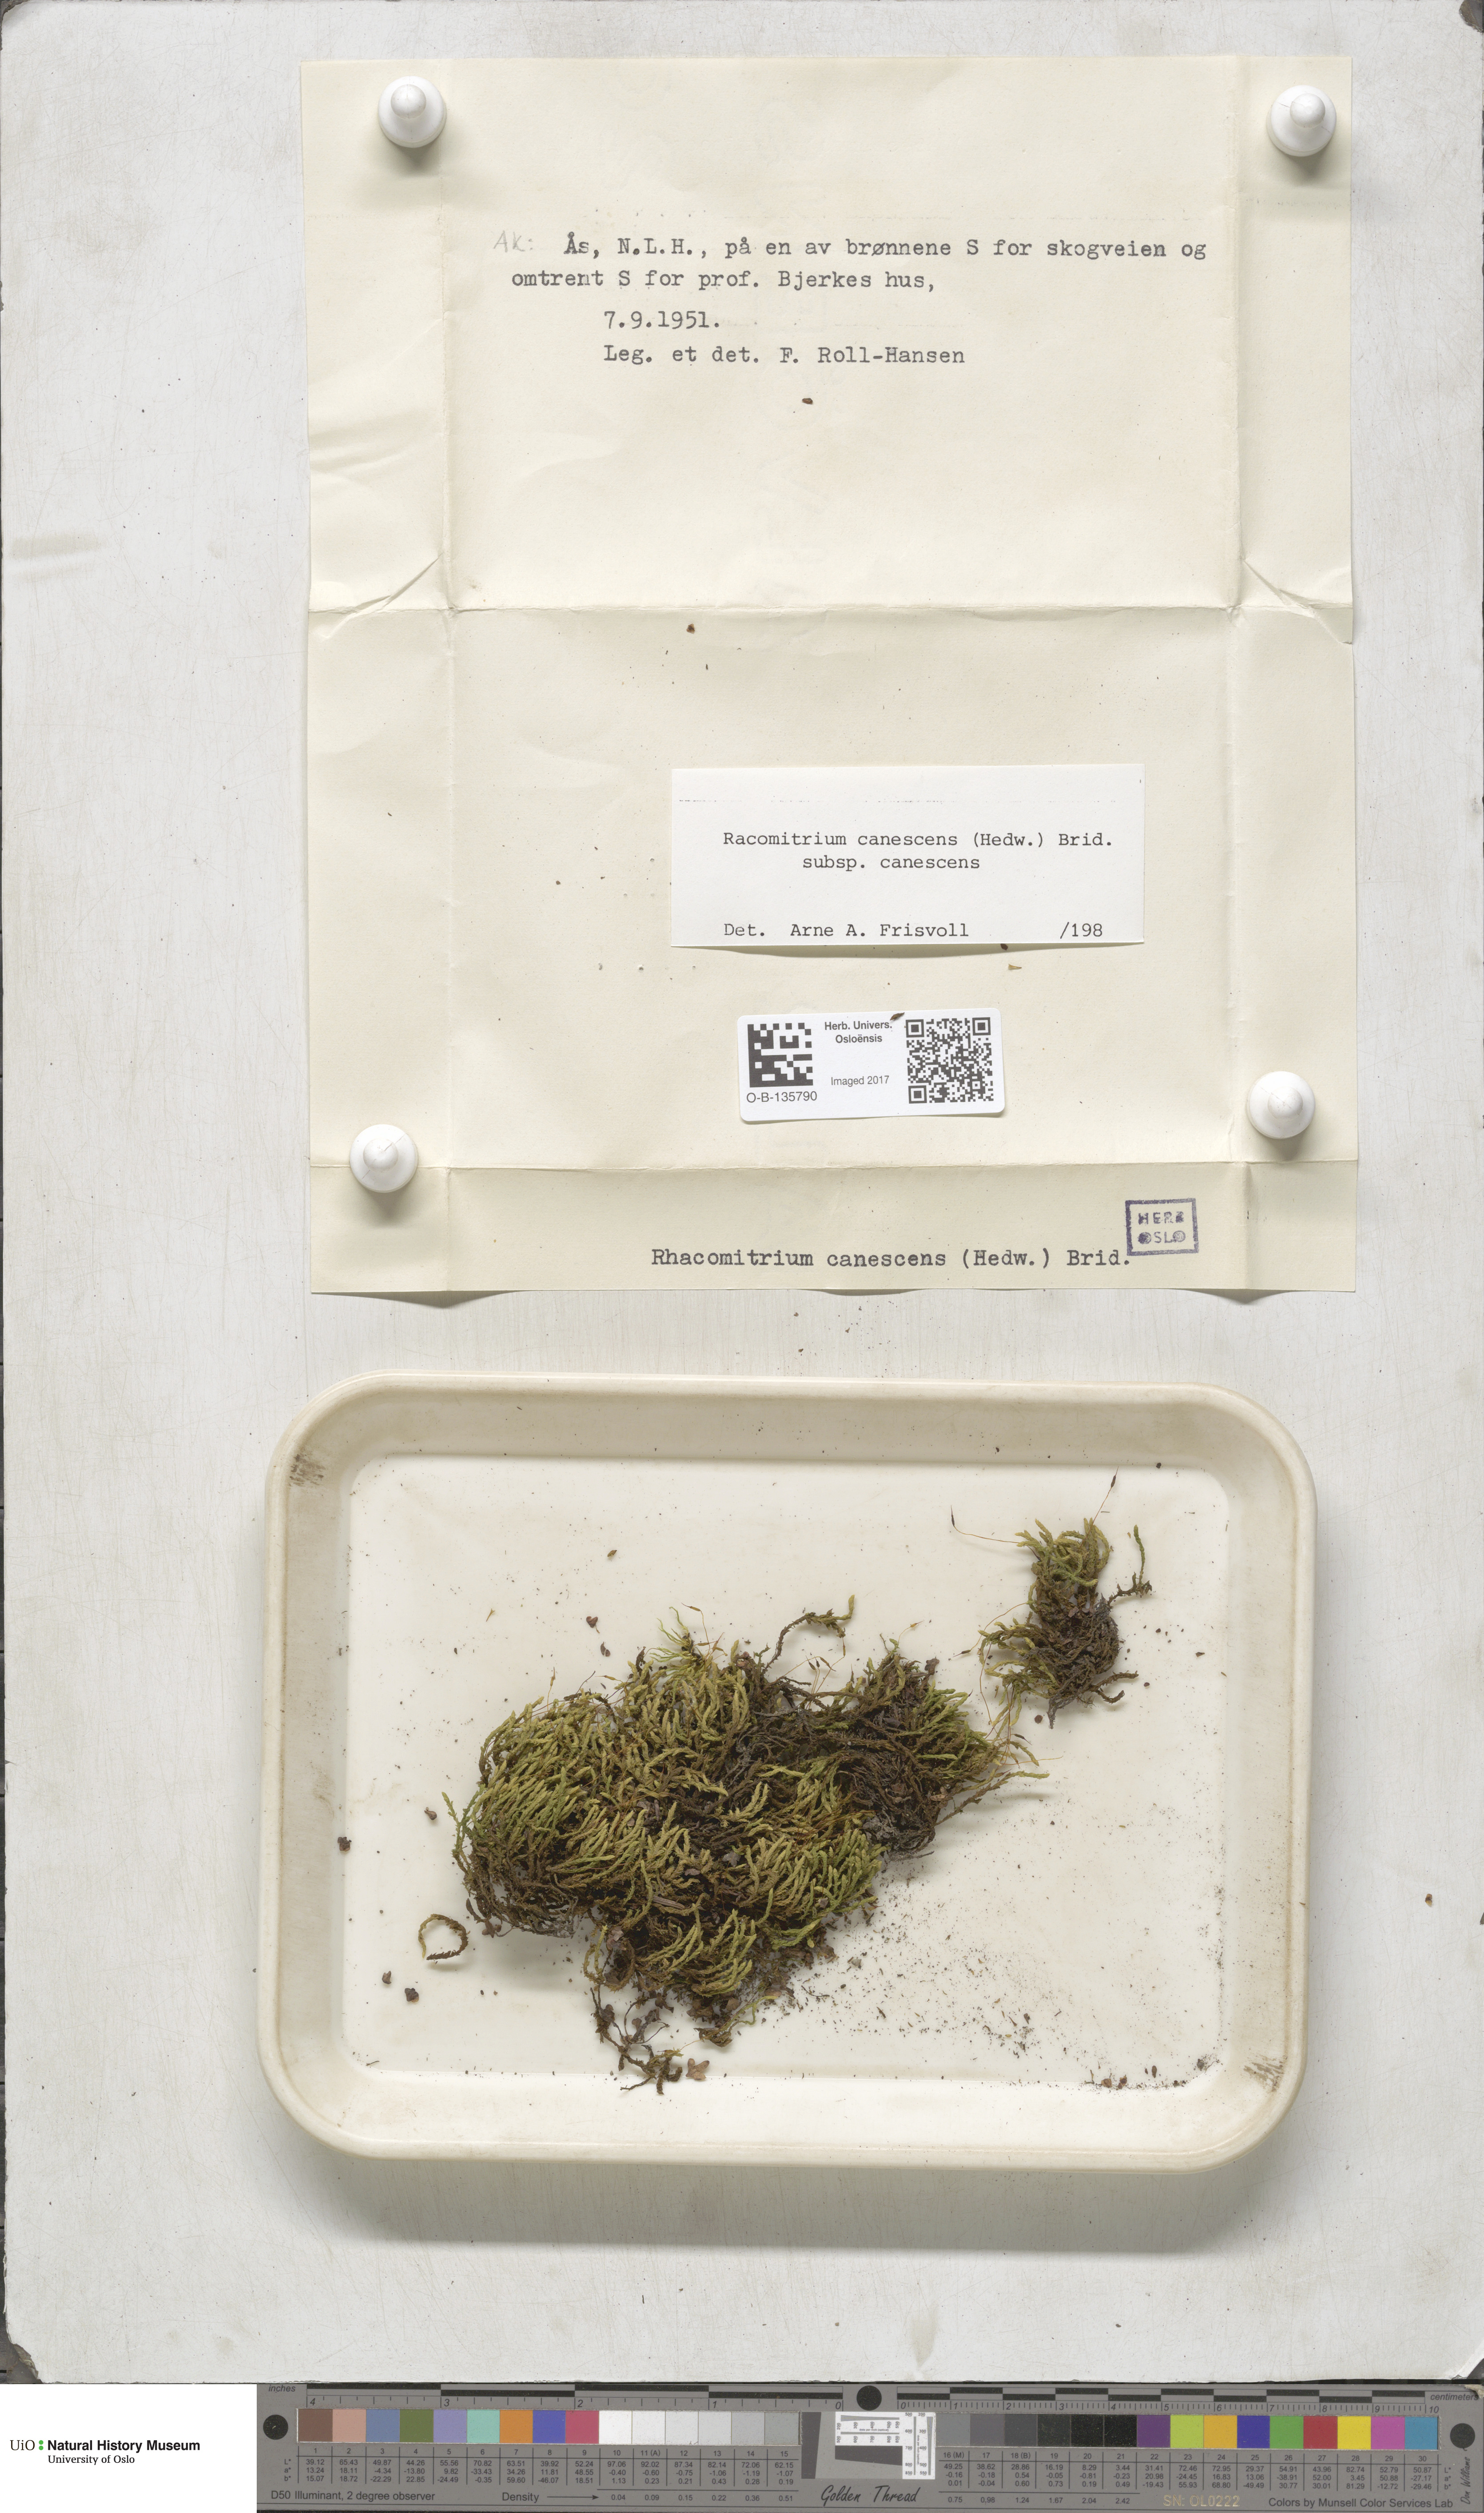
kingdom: Plantae
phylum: Bryophyta
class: Bryopsida
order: Grimmiales
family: Grimmiaceae
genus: Niphotrichum
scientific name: Niphotrichum canescens
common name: Hoary fringe-moss
